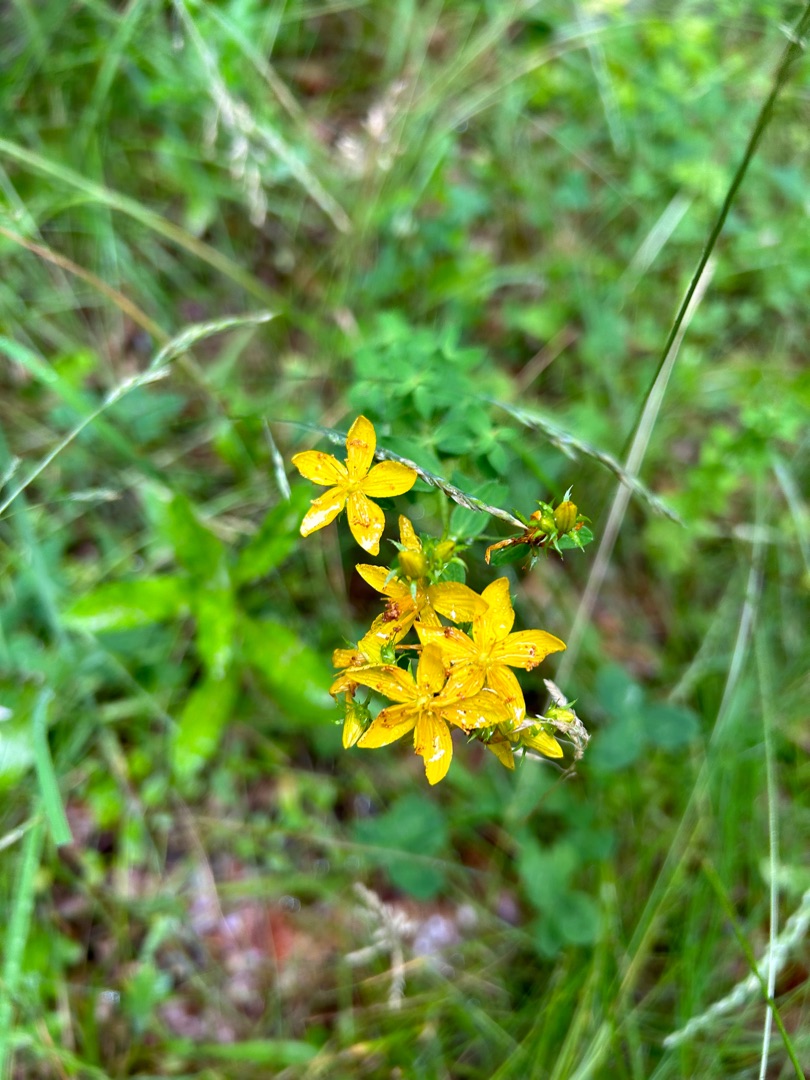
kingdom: Plantae
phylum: Tracheophyta
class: Magnoliopsida
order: Malpighiales
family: Hypericaceae
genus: Hypericum
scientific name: Hypericum
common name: Perikonslægten
